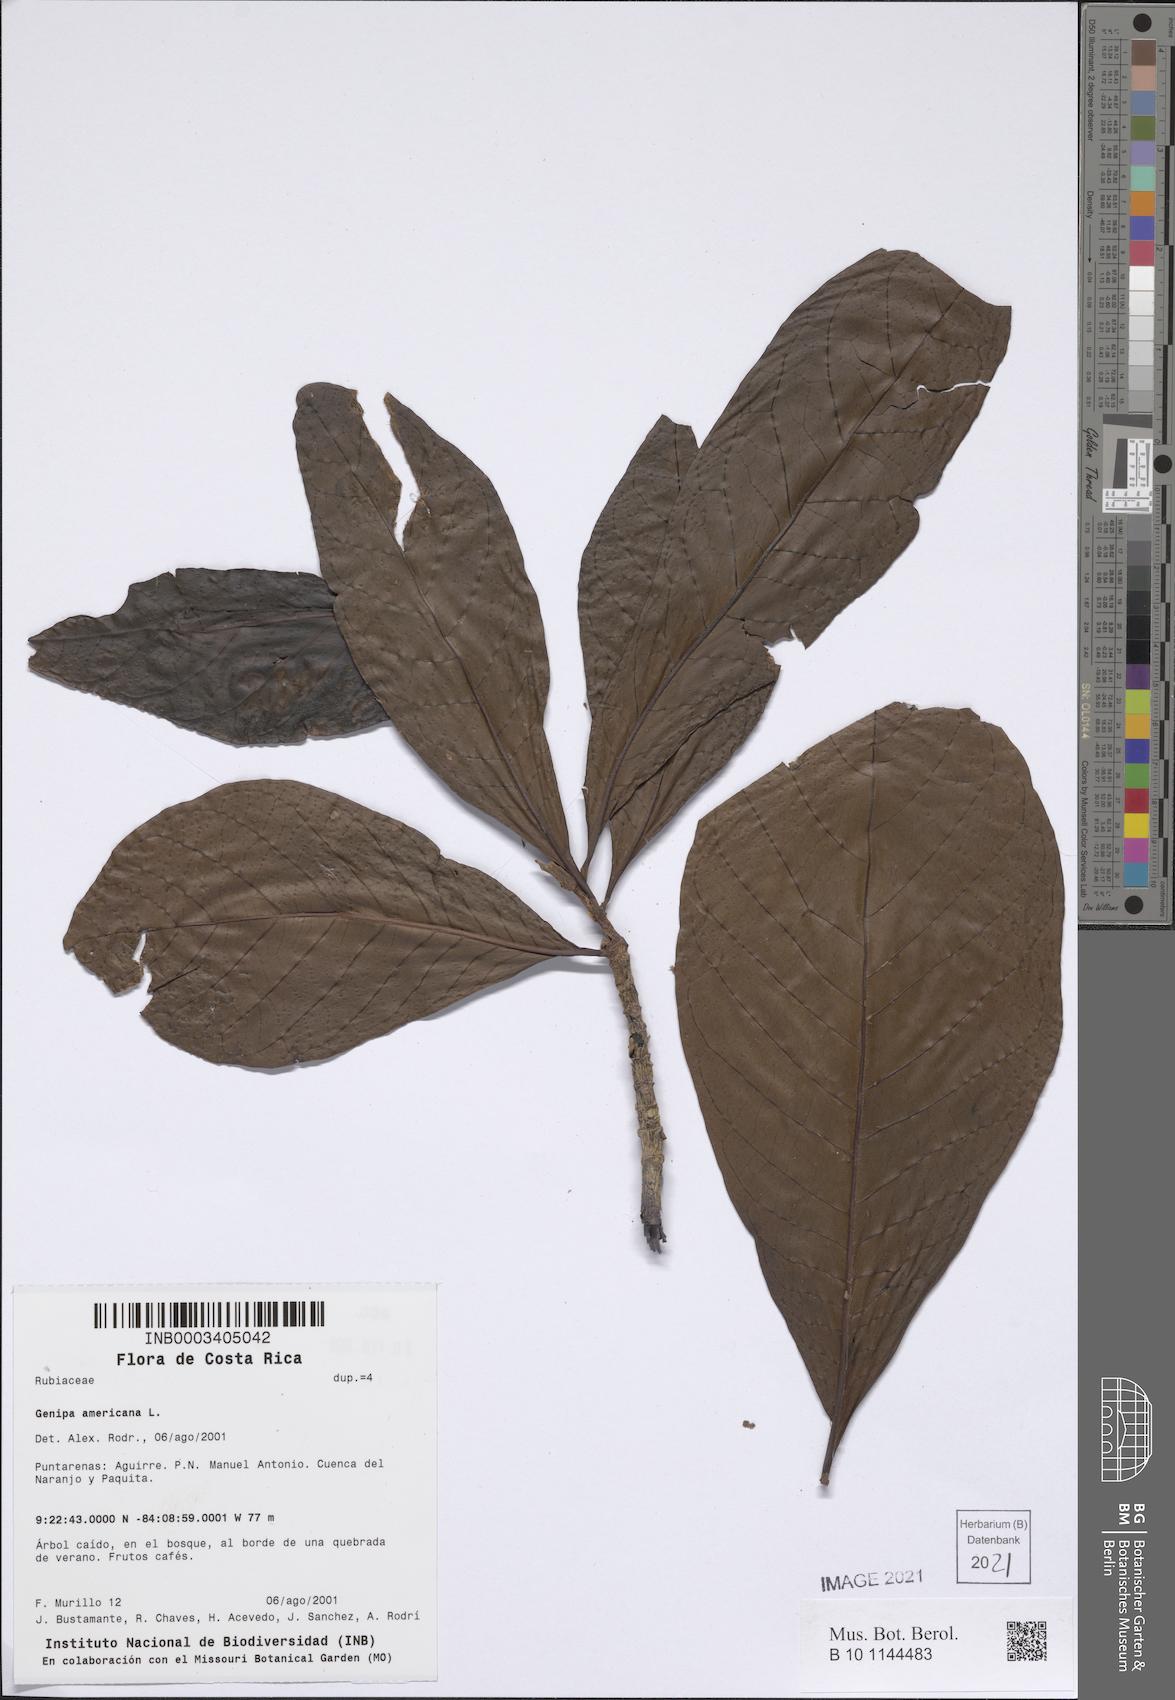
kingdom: Plantae
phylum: Tracheophyta
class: Magnoliopsida
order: Gentianales
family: Rubiaceae
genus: Genipa
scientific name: Genipa americana
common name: Genipap
